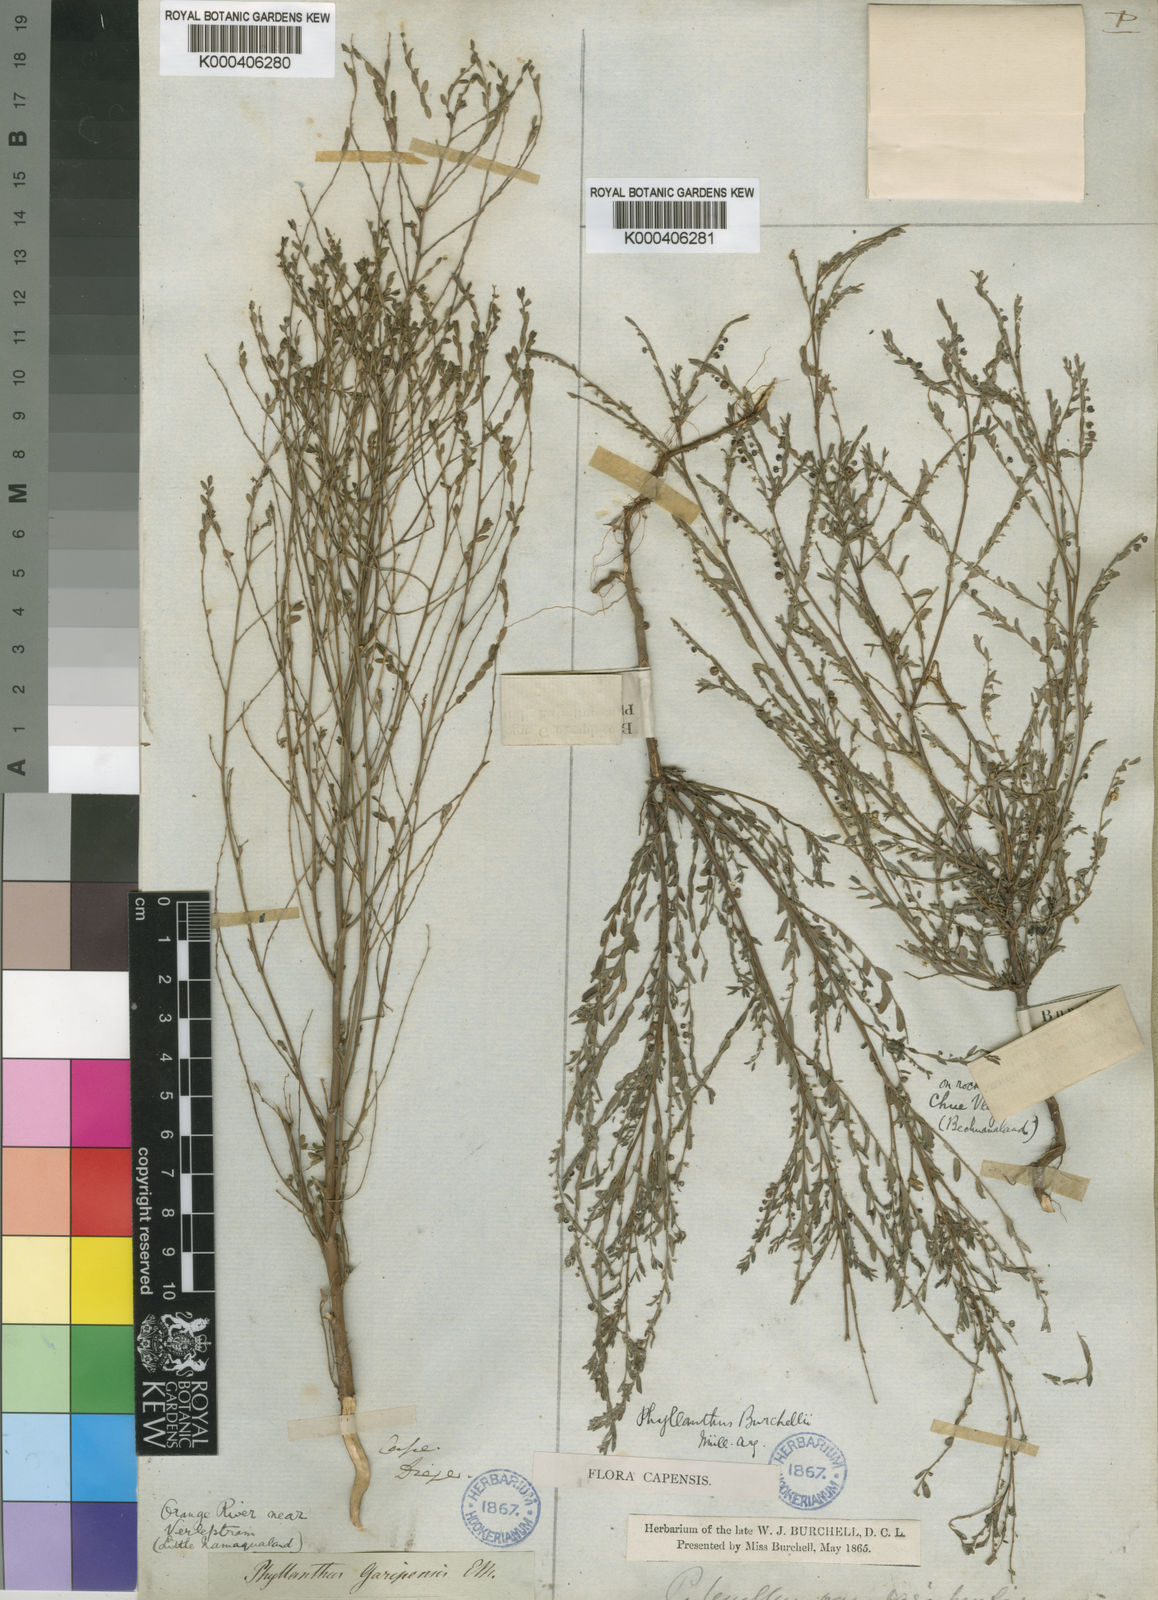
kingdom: Plantae
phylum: Tracheophyta
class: Magnoliopsida
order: Malpighiales
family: Phyllanthaceae
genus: Phyllanthus
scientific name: Phyllanthus
